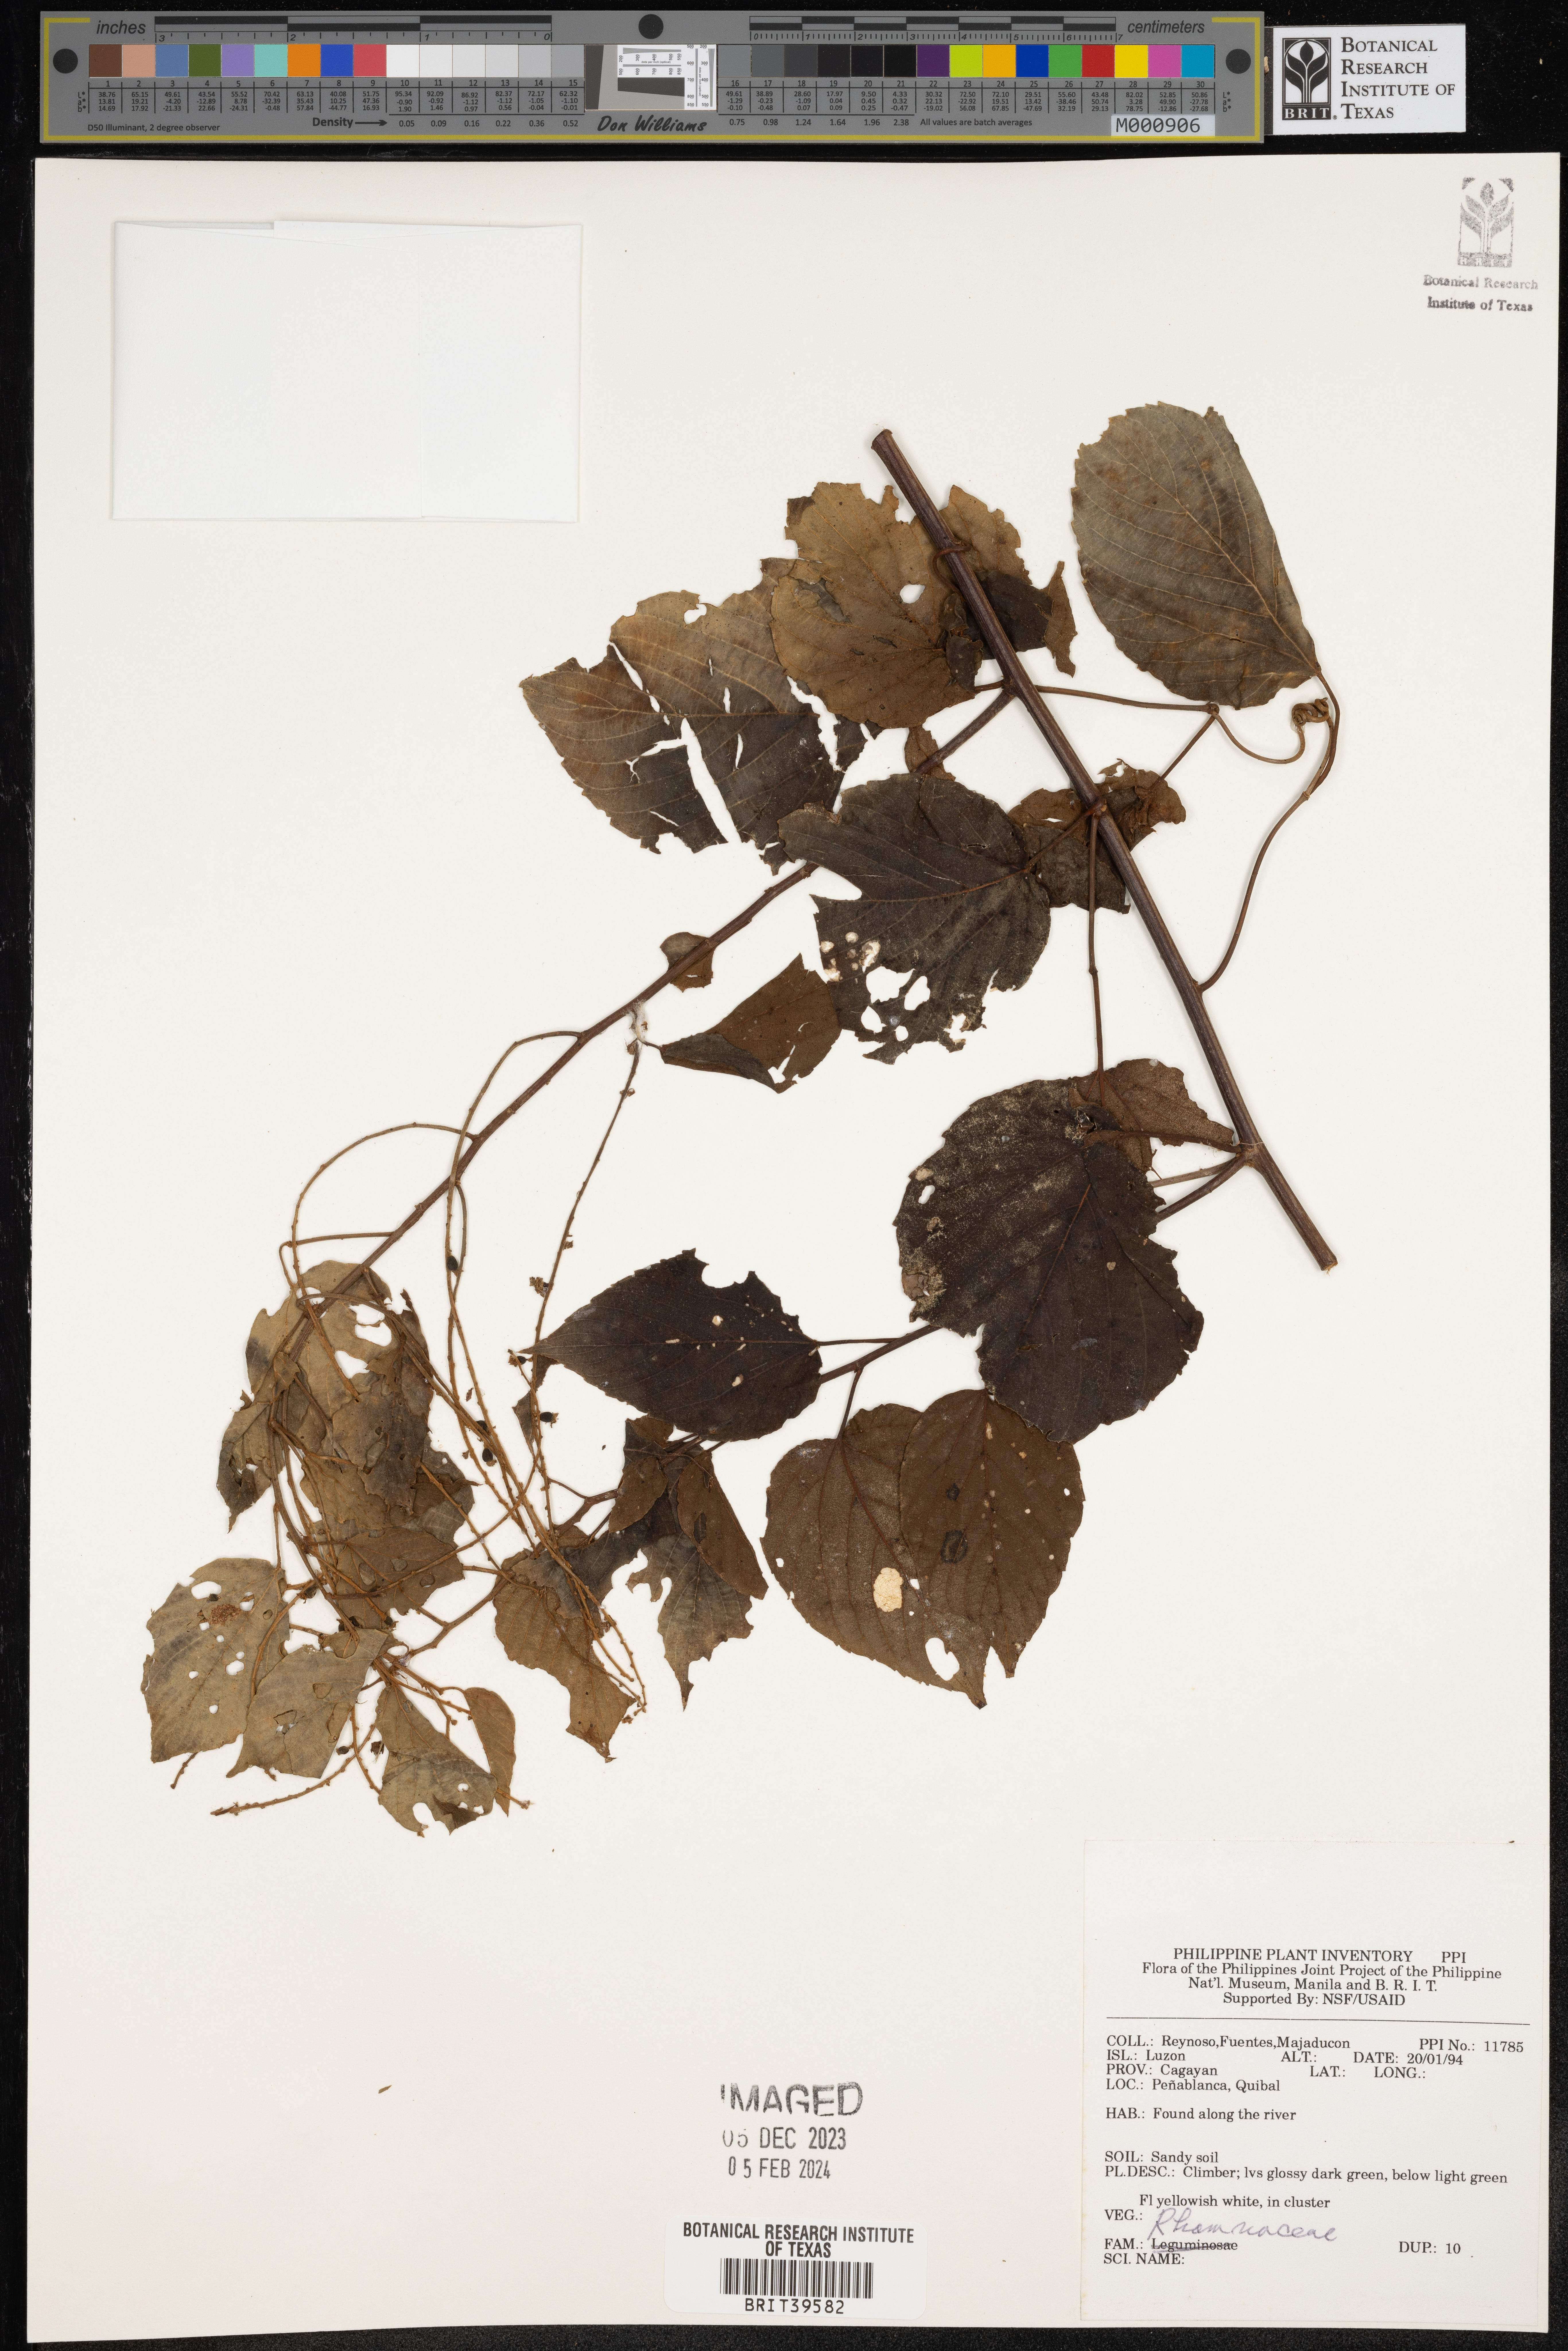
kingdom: Plantae
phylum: Tracheophyta
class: Magnoliopsida
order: Rosales
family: Rhamnaceae
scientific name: Rhamnaceae
